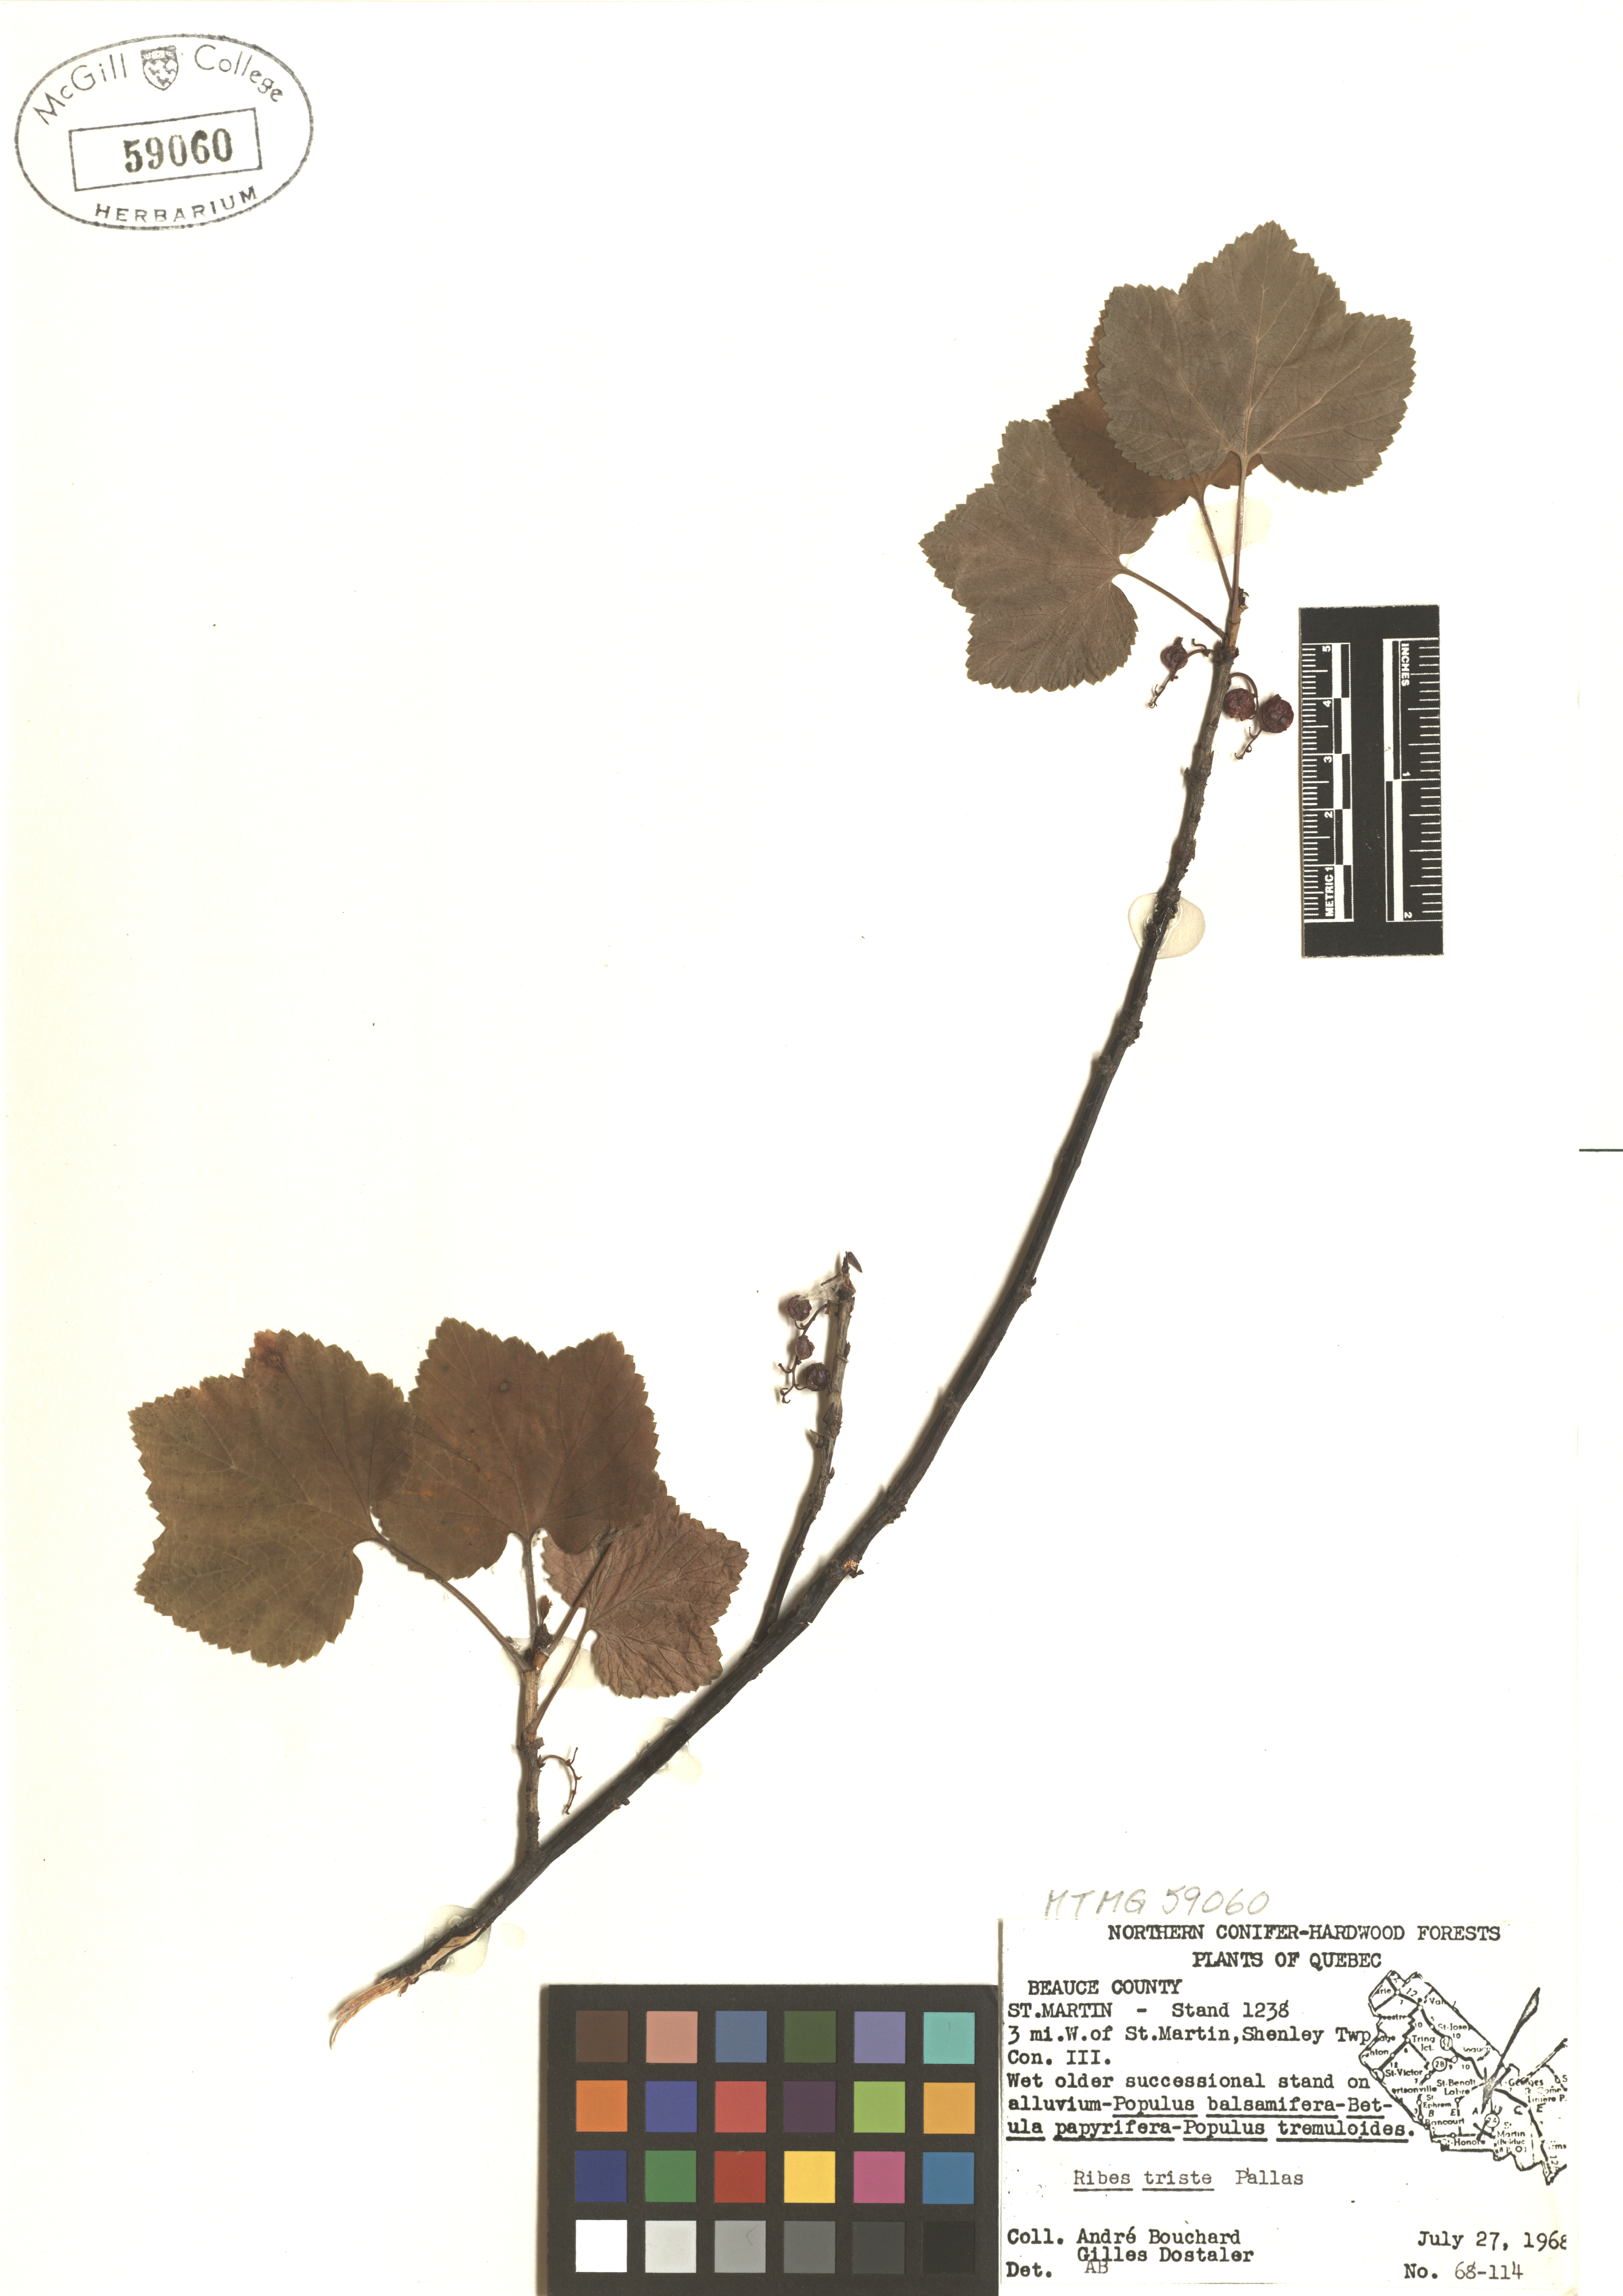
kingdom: Plantae
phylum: Tracheophyta
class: Magnoliopsida
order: Saxifragales
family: Grossulariaceae
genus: Ribes
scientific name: Ribes triste
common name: Swamp red currant
